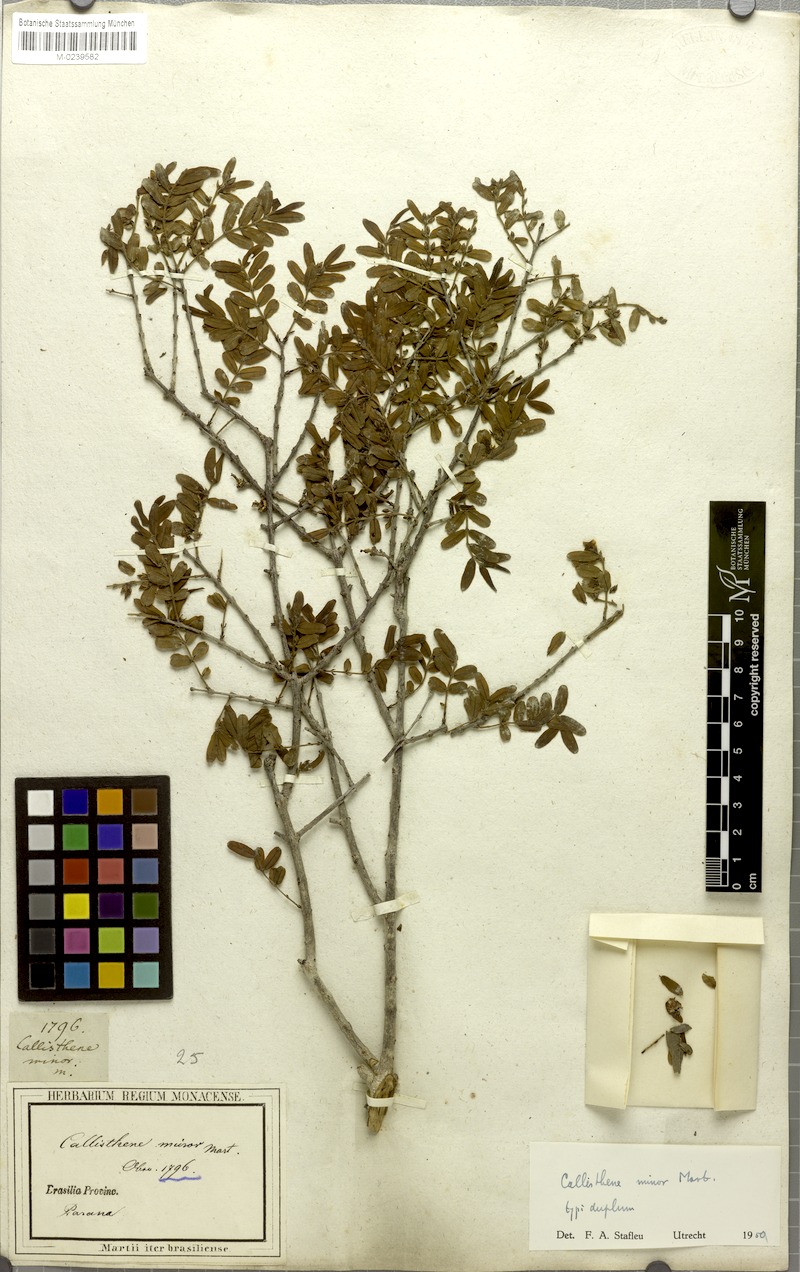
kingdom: Plantae
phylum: Tracheophyta
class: Magnoliopsida
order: Myrtales
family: Vochysiaceae
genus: Callisthene
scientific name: Callisthene minor
